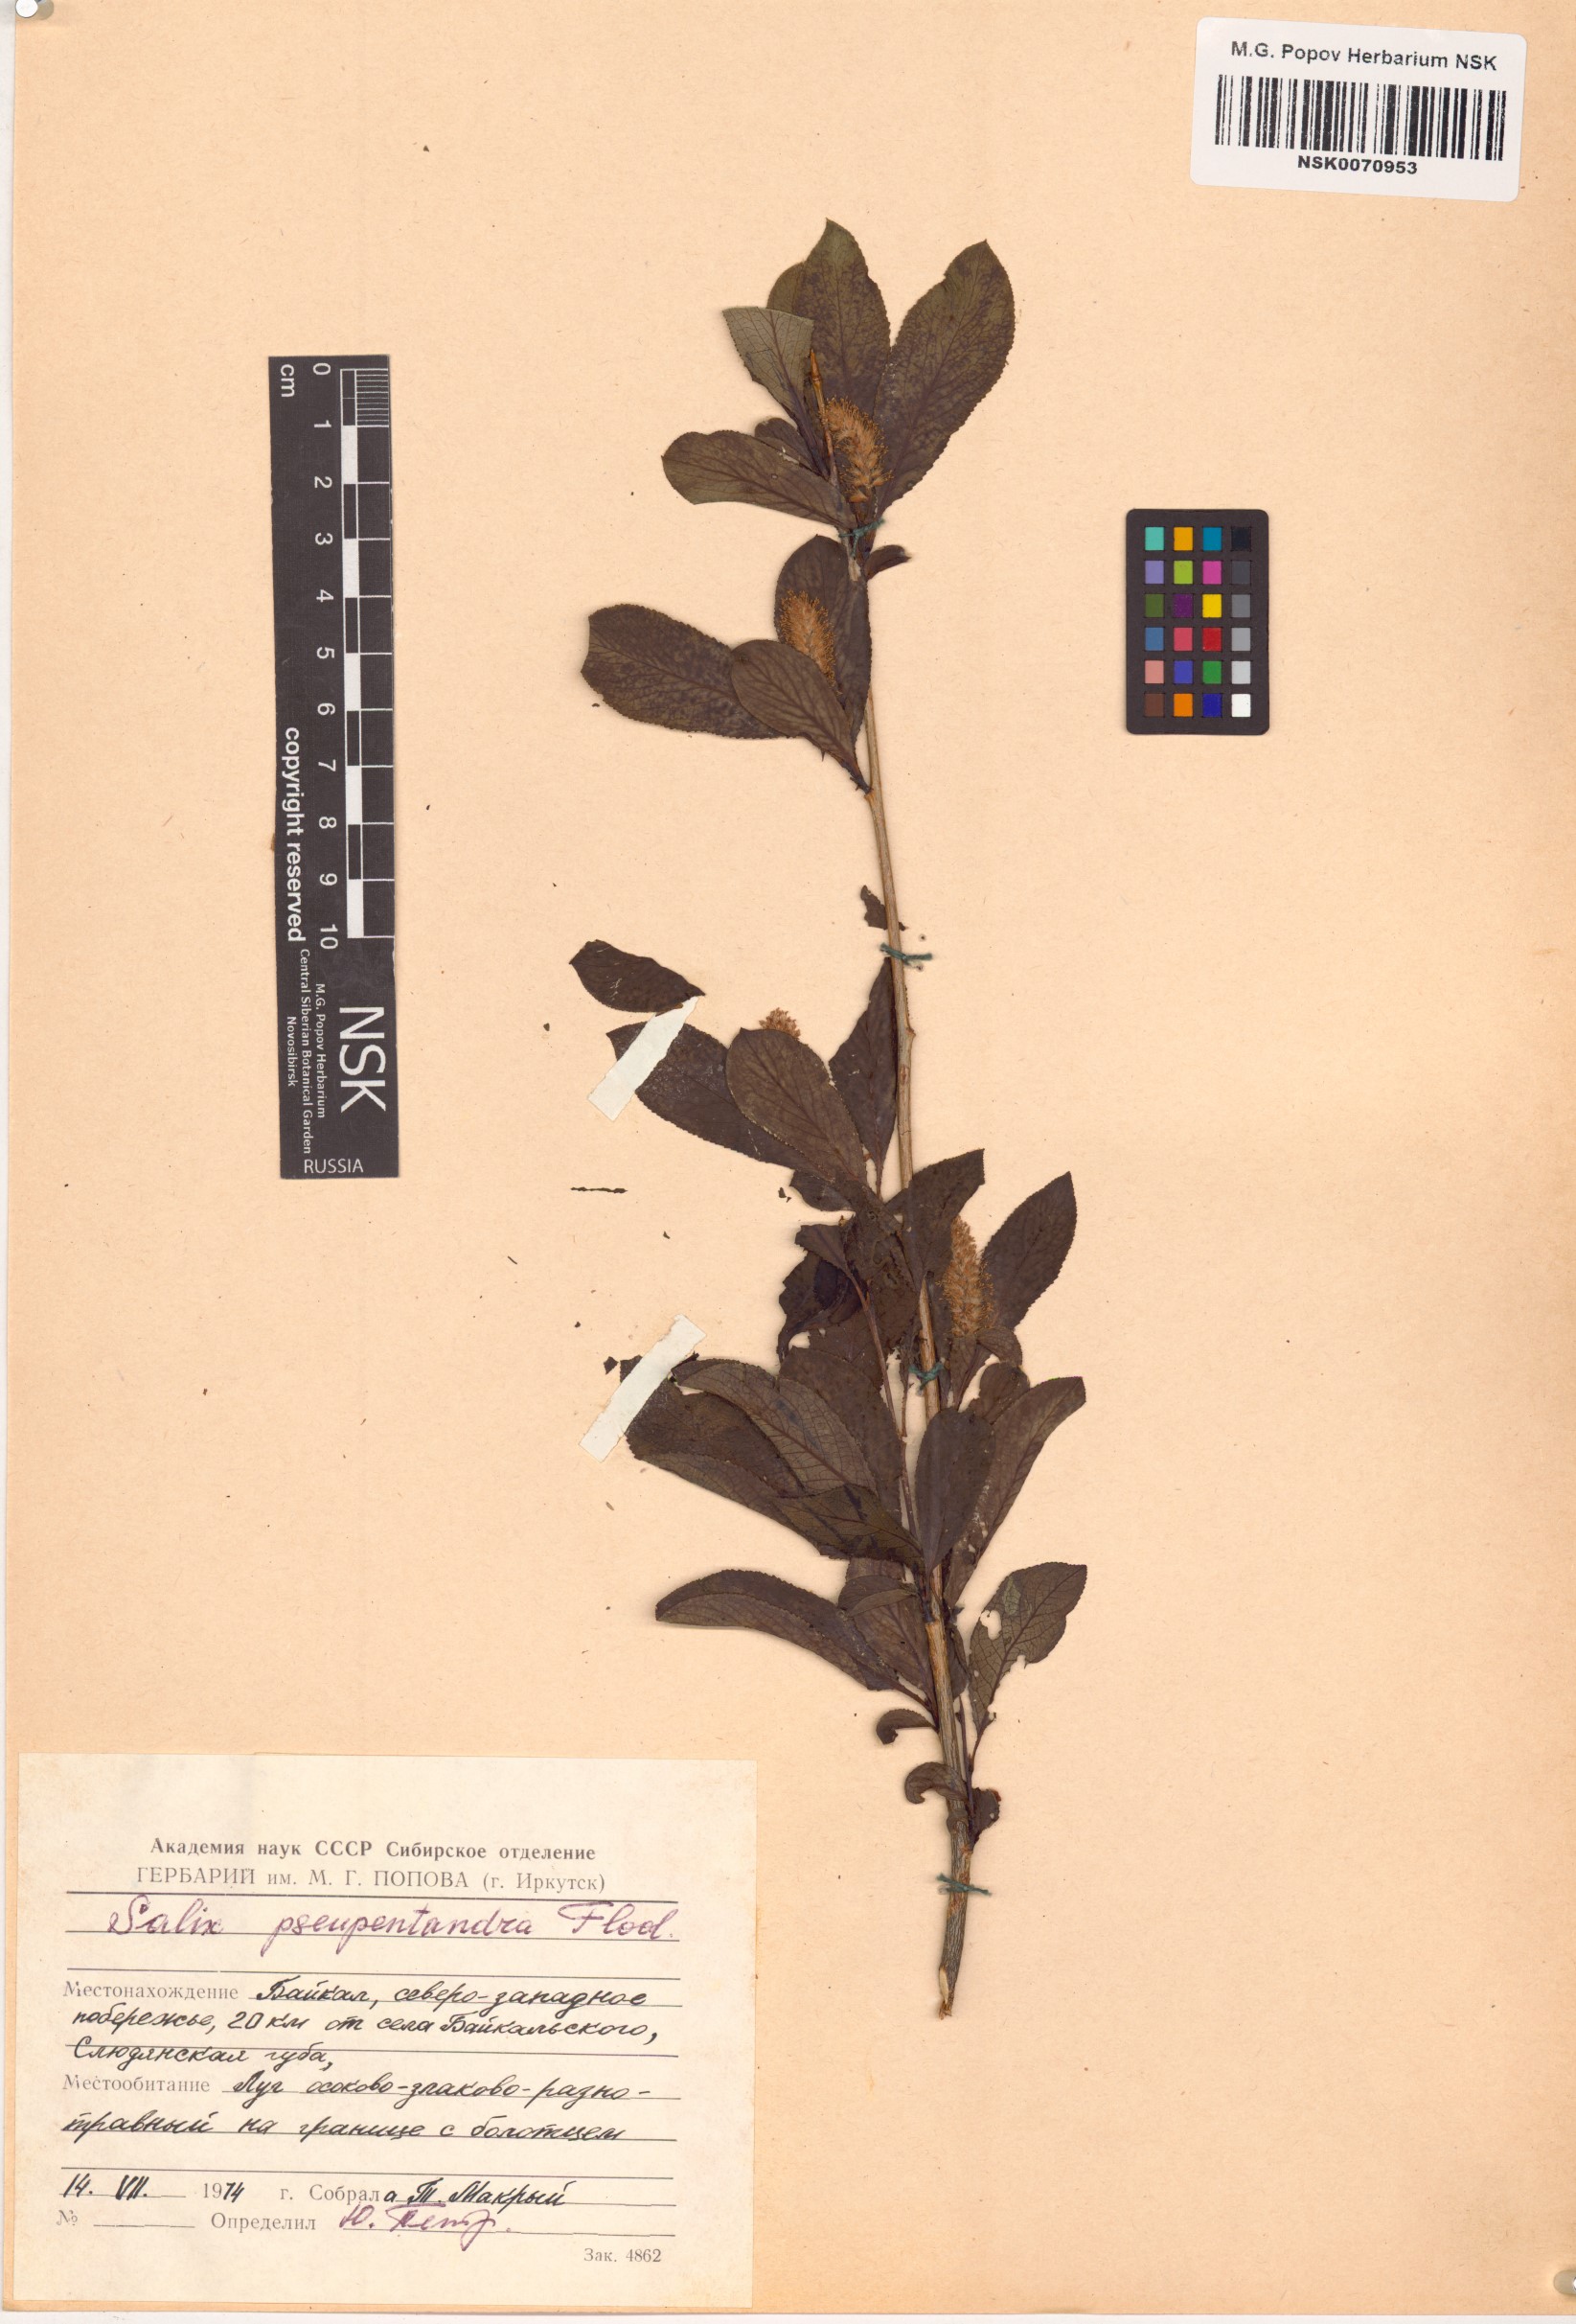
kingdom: Plantae
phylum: Tracheophyta
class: Magnoliopsida
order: Malpighiales
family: Salicaceae
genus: Salix
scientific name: Salix pseudopentandra
